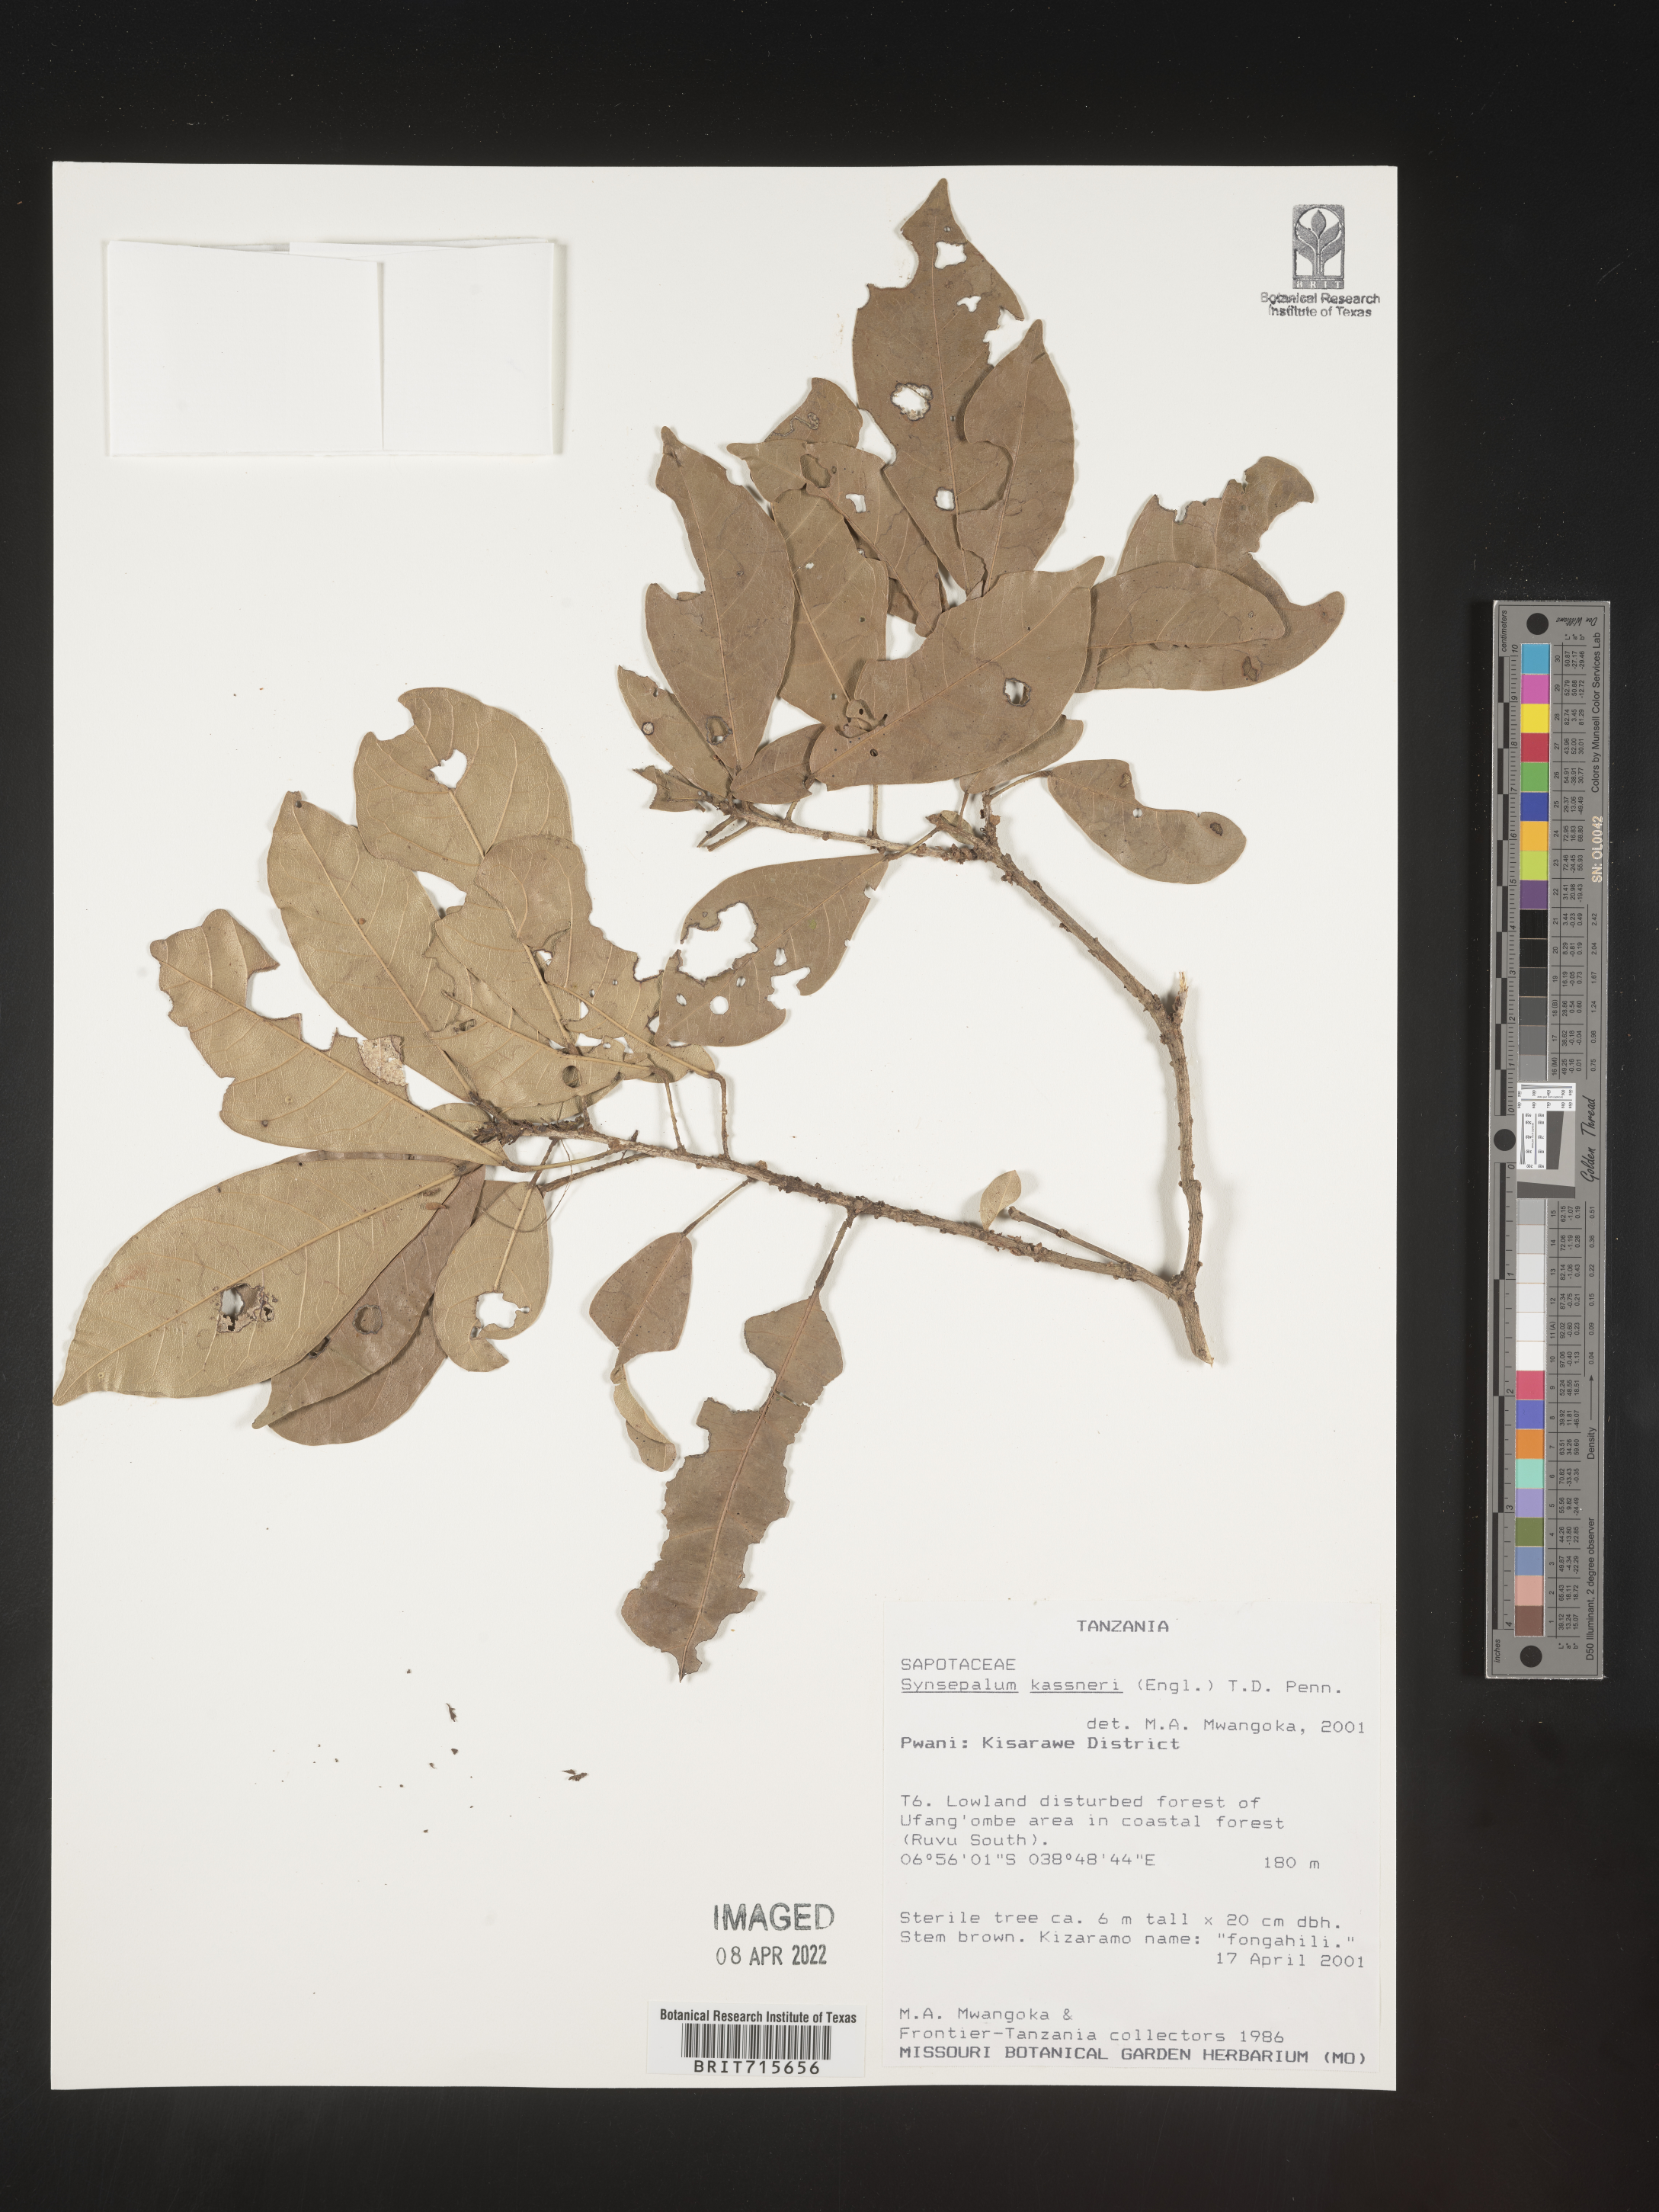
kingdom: Plantae
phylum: Tracheophyta
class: Magnoliopsida
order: Ericales
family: Sapotaceae
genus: Synsepalum
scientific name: Synsepalum
